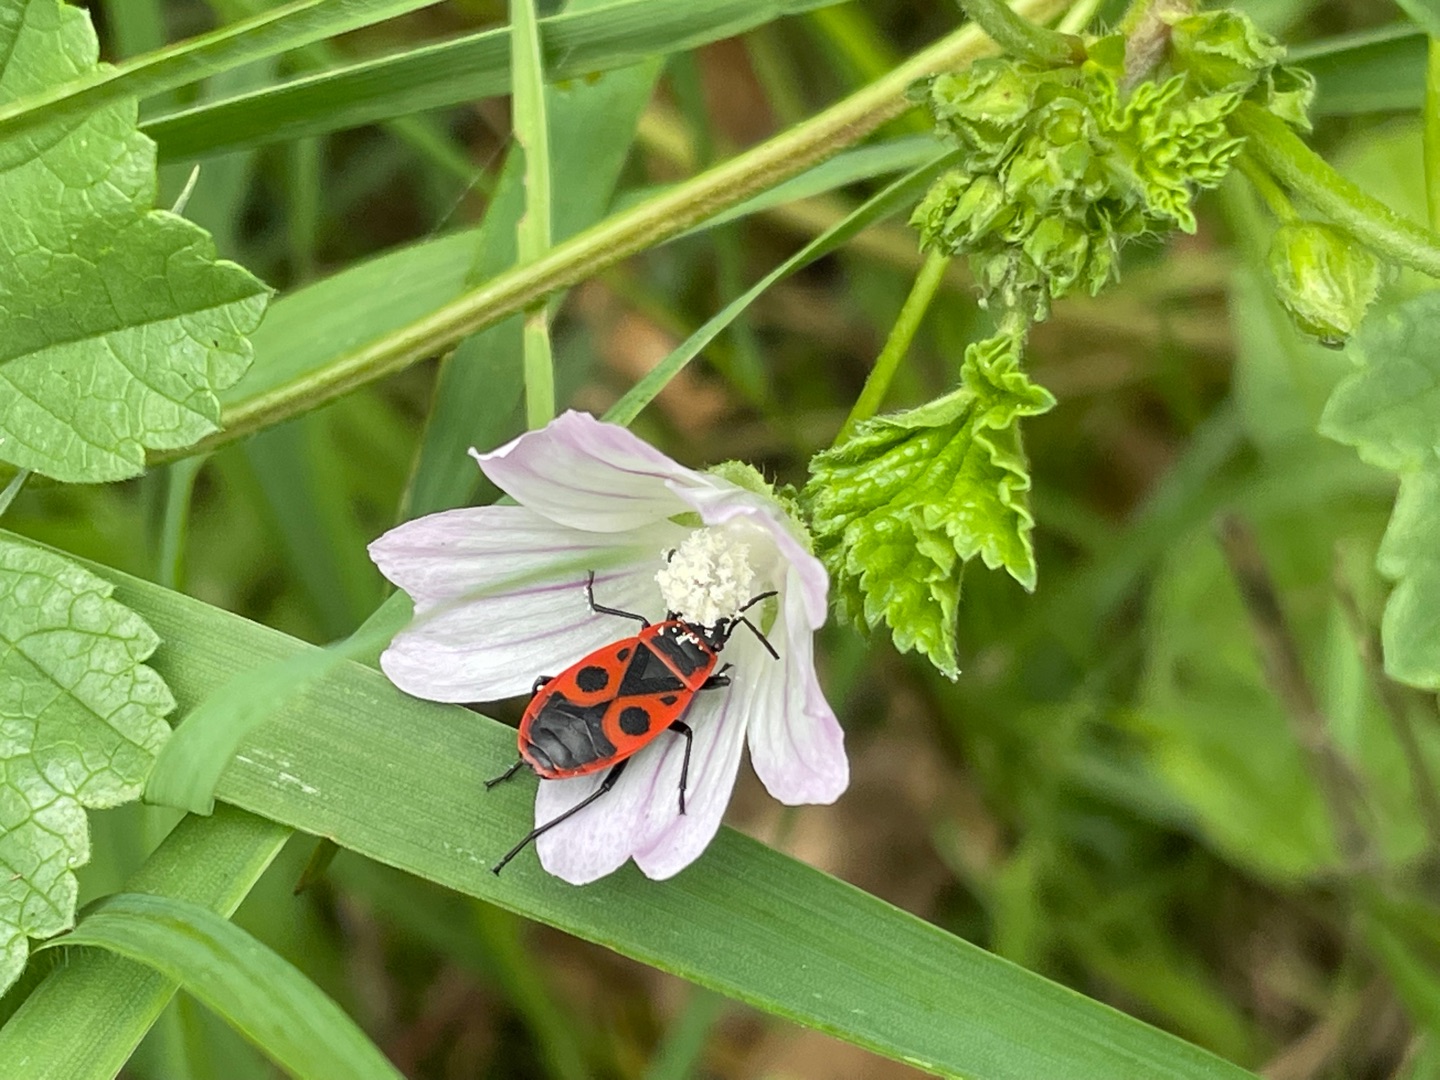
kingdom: Animalia
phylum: Arthropoda
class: Insecta
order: Hemiptera
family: Pyrrhocoridae
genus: Pyrrhocoris
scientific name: Pyrrhocoris apterus
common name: Ildtæge
